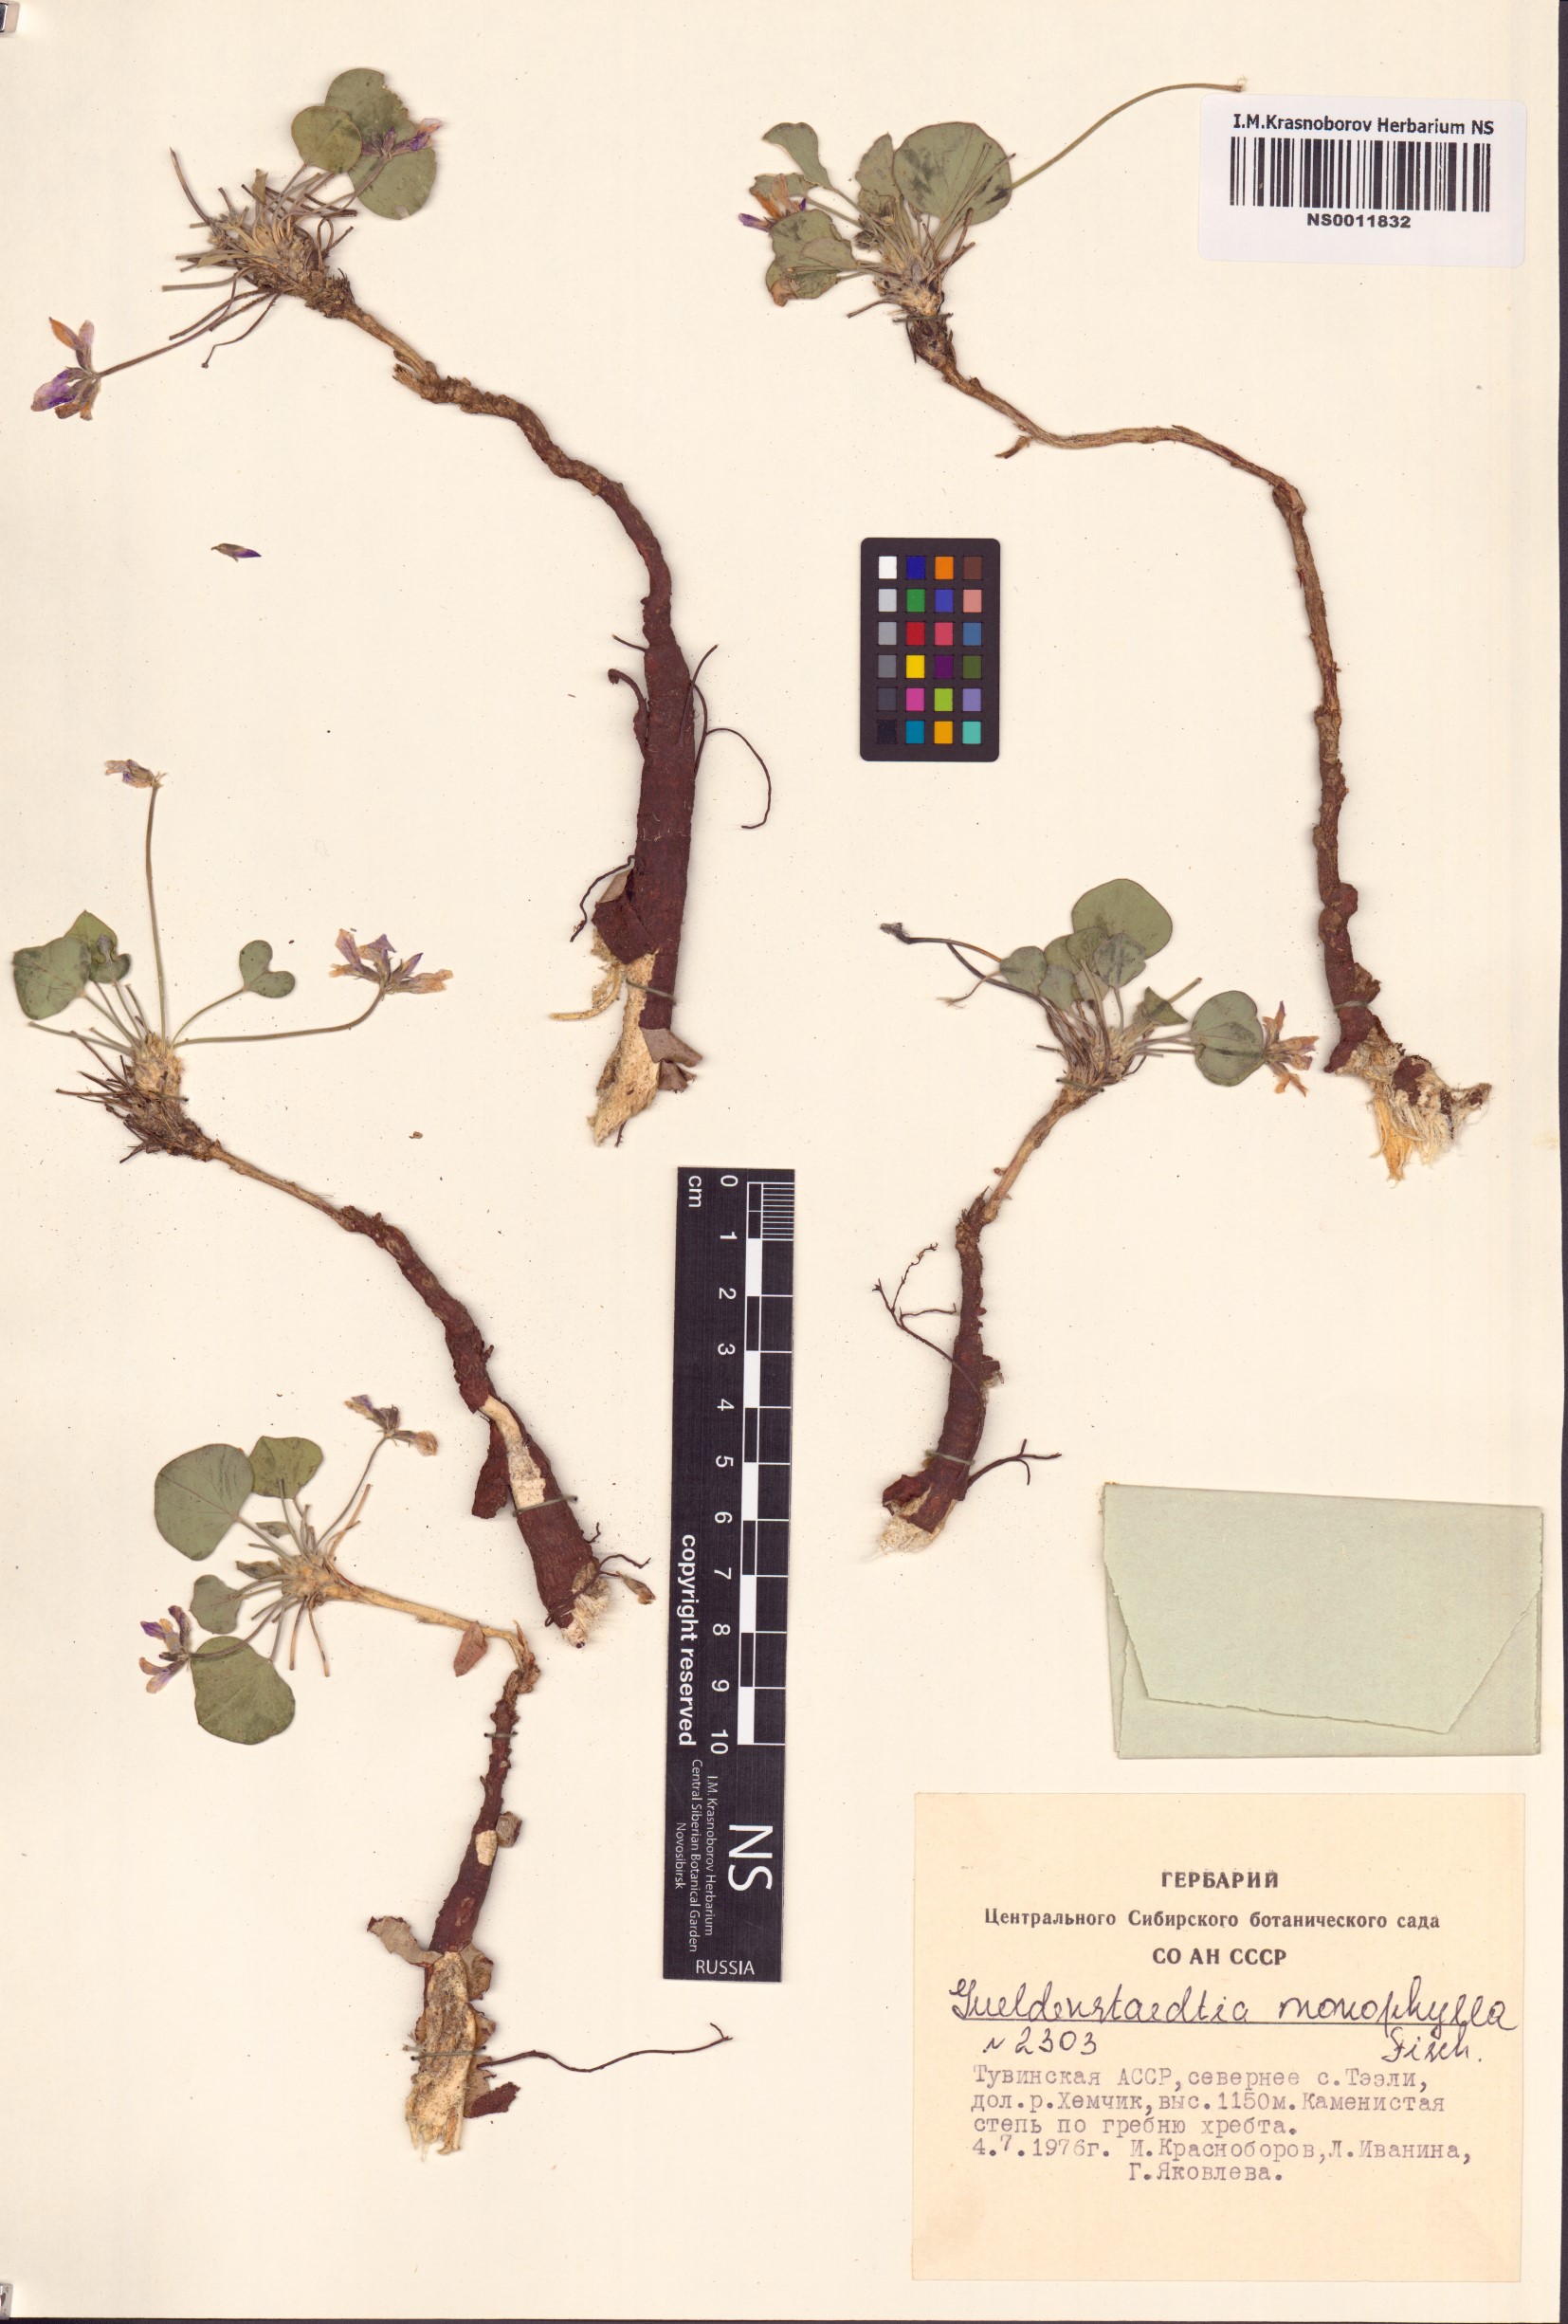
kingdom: Plantae
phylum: Tracheophyta
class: Magnoliopsida
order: Fabales
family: Fabaceae
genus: Gueldenstaedtia
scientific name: Gueldenstaedtia monophylla
